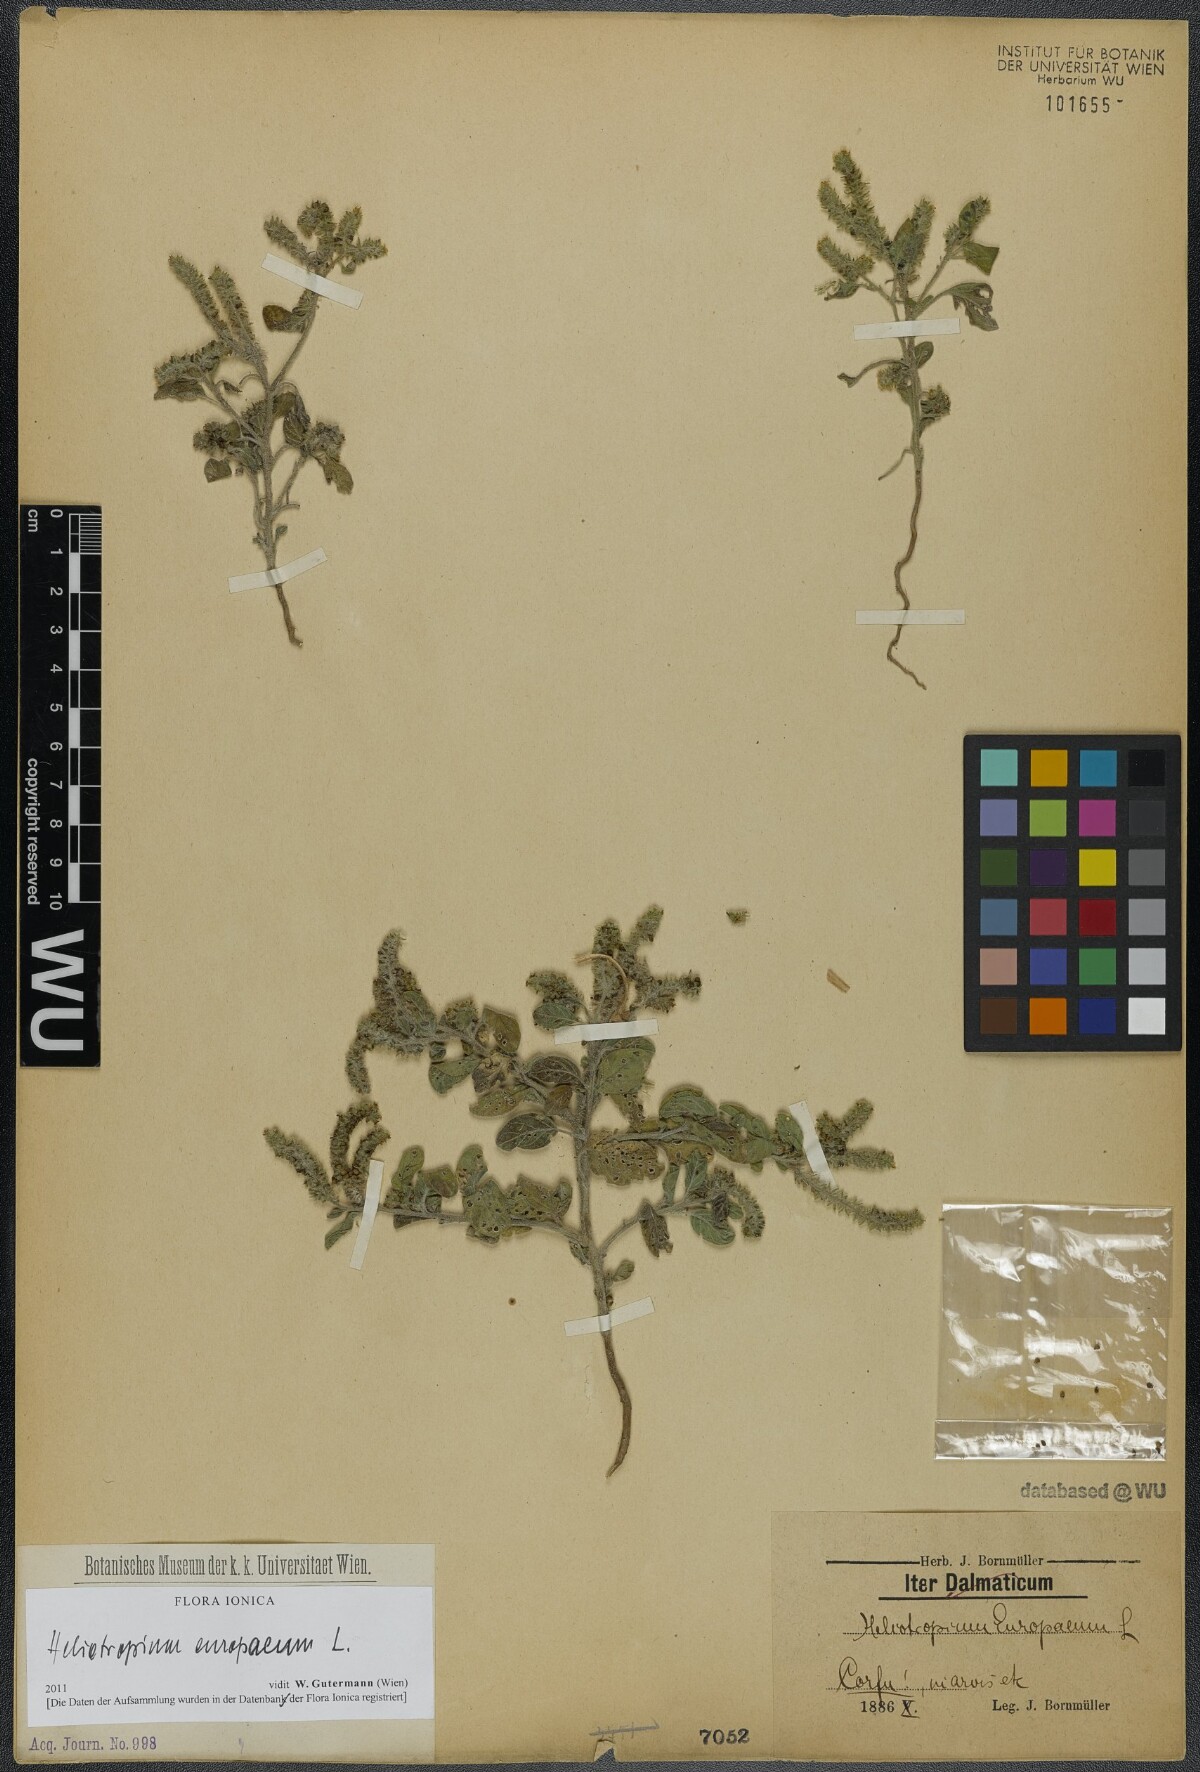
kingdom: Plantae
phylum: Tracheophyta
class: Magnoliopsida
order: Boraginales
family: Heliotropiaceae
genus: Heliotropium
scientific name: Heliotropium europaeum
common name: European heliotrope
